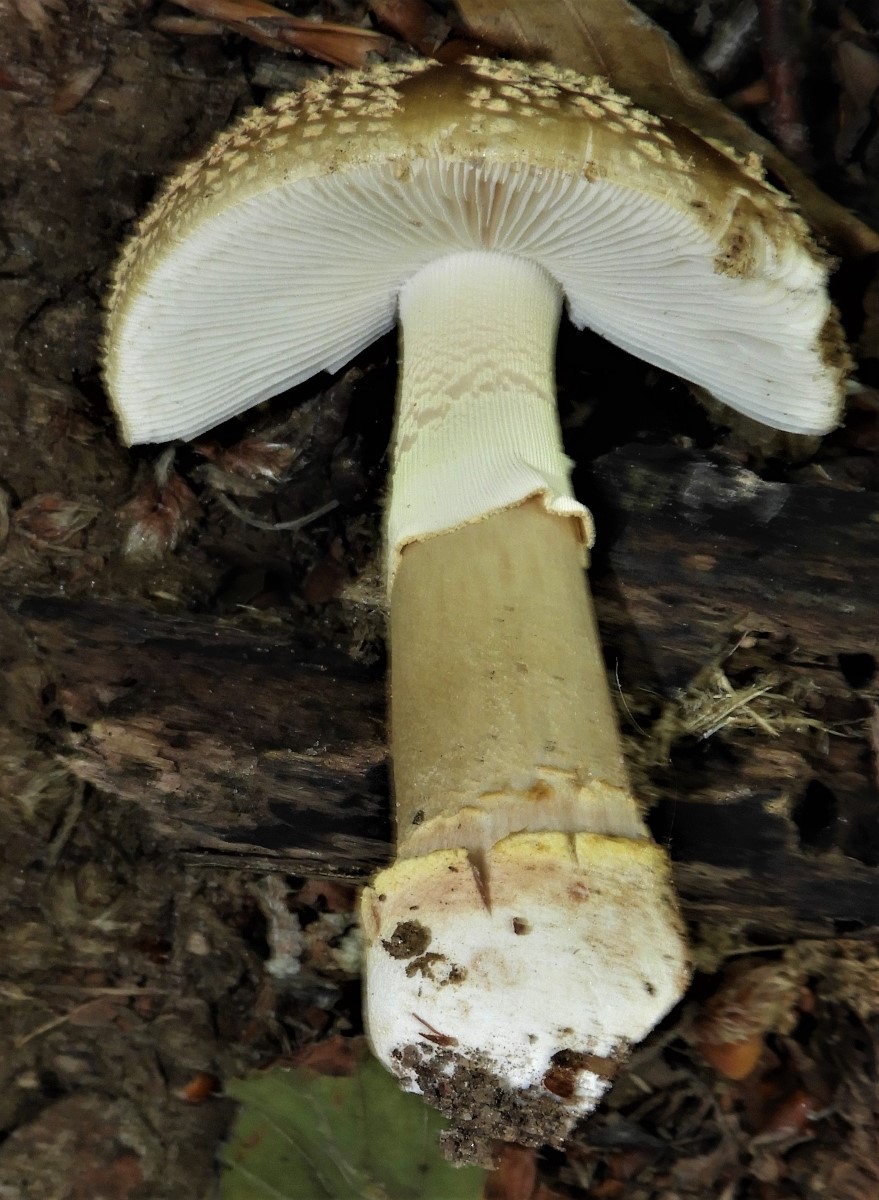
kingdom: Fungi
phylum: Basidiomycota
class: Agaricomycetes
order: Agaricales
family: Amanitaceae
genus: Amanita
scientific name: Amanita rubescens
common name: Blusher
